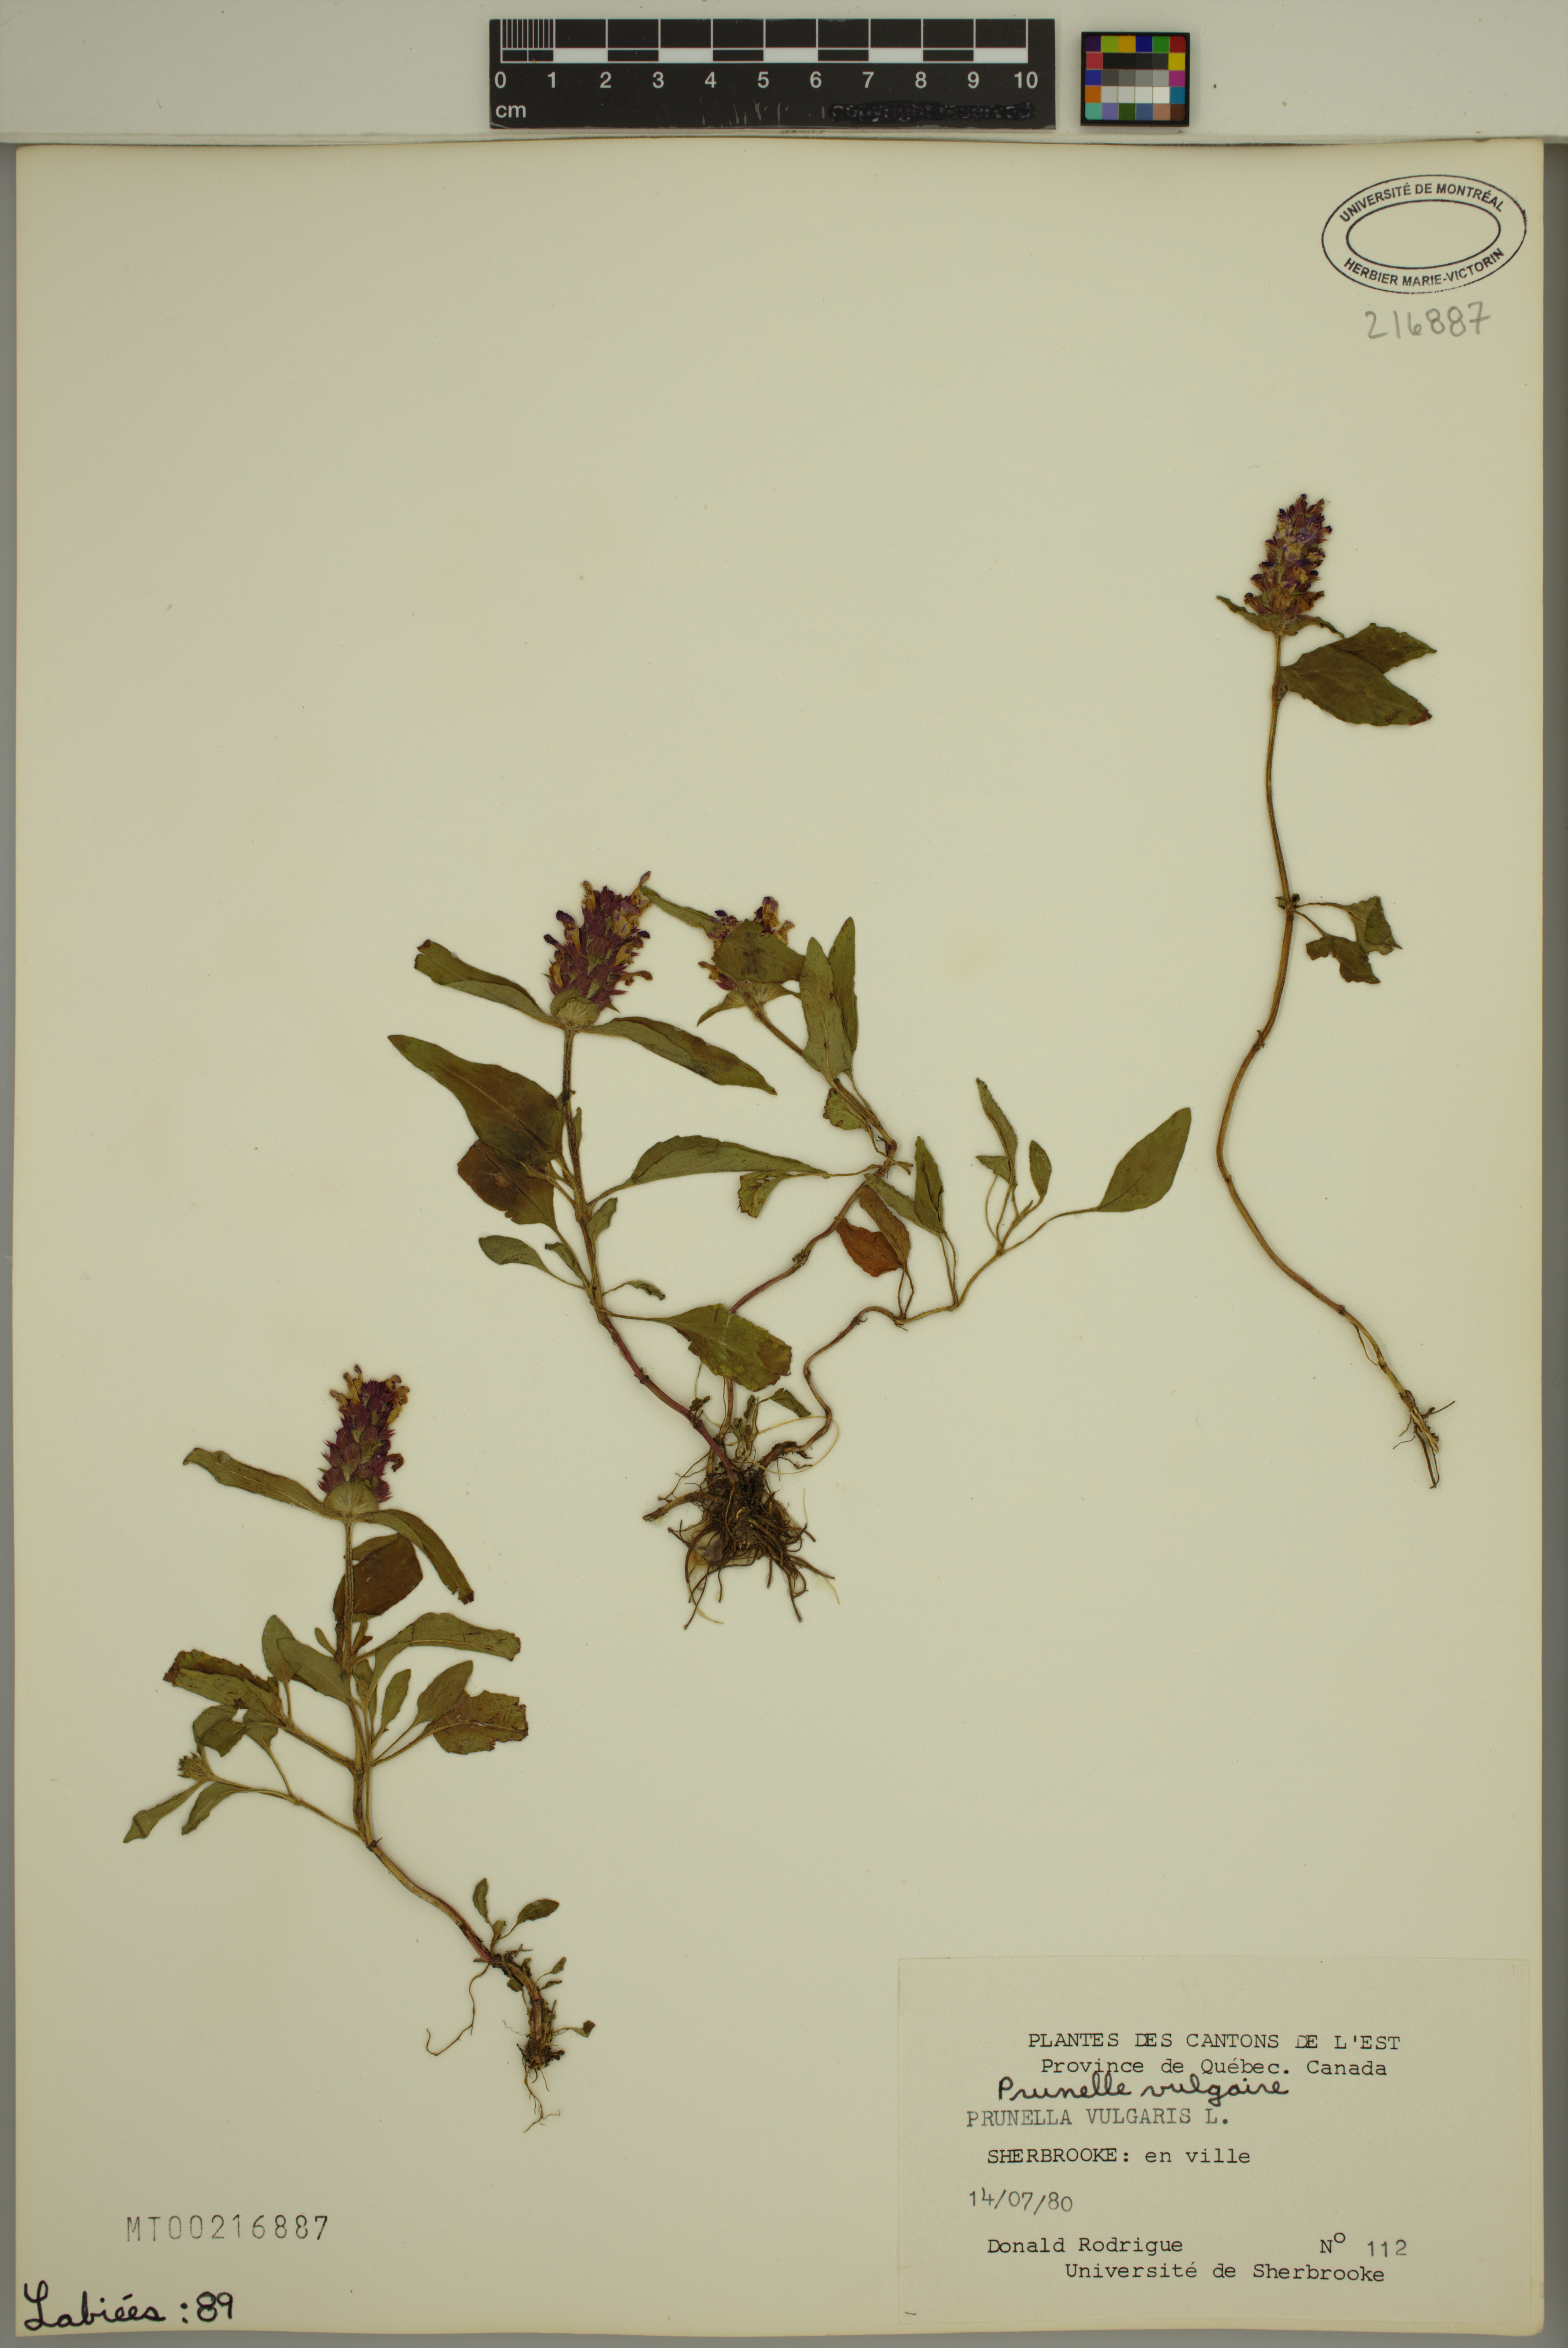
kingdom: Plantae
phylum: Tracheophyta
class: Magnoliopsida
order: Lamiales
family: Lamiaceae
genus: Prunella
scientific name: Prunella vulgaris
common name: Heal-all
